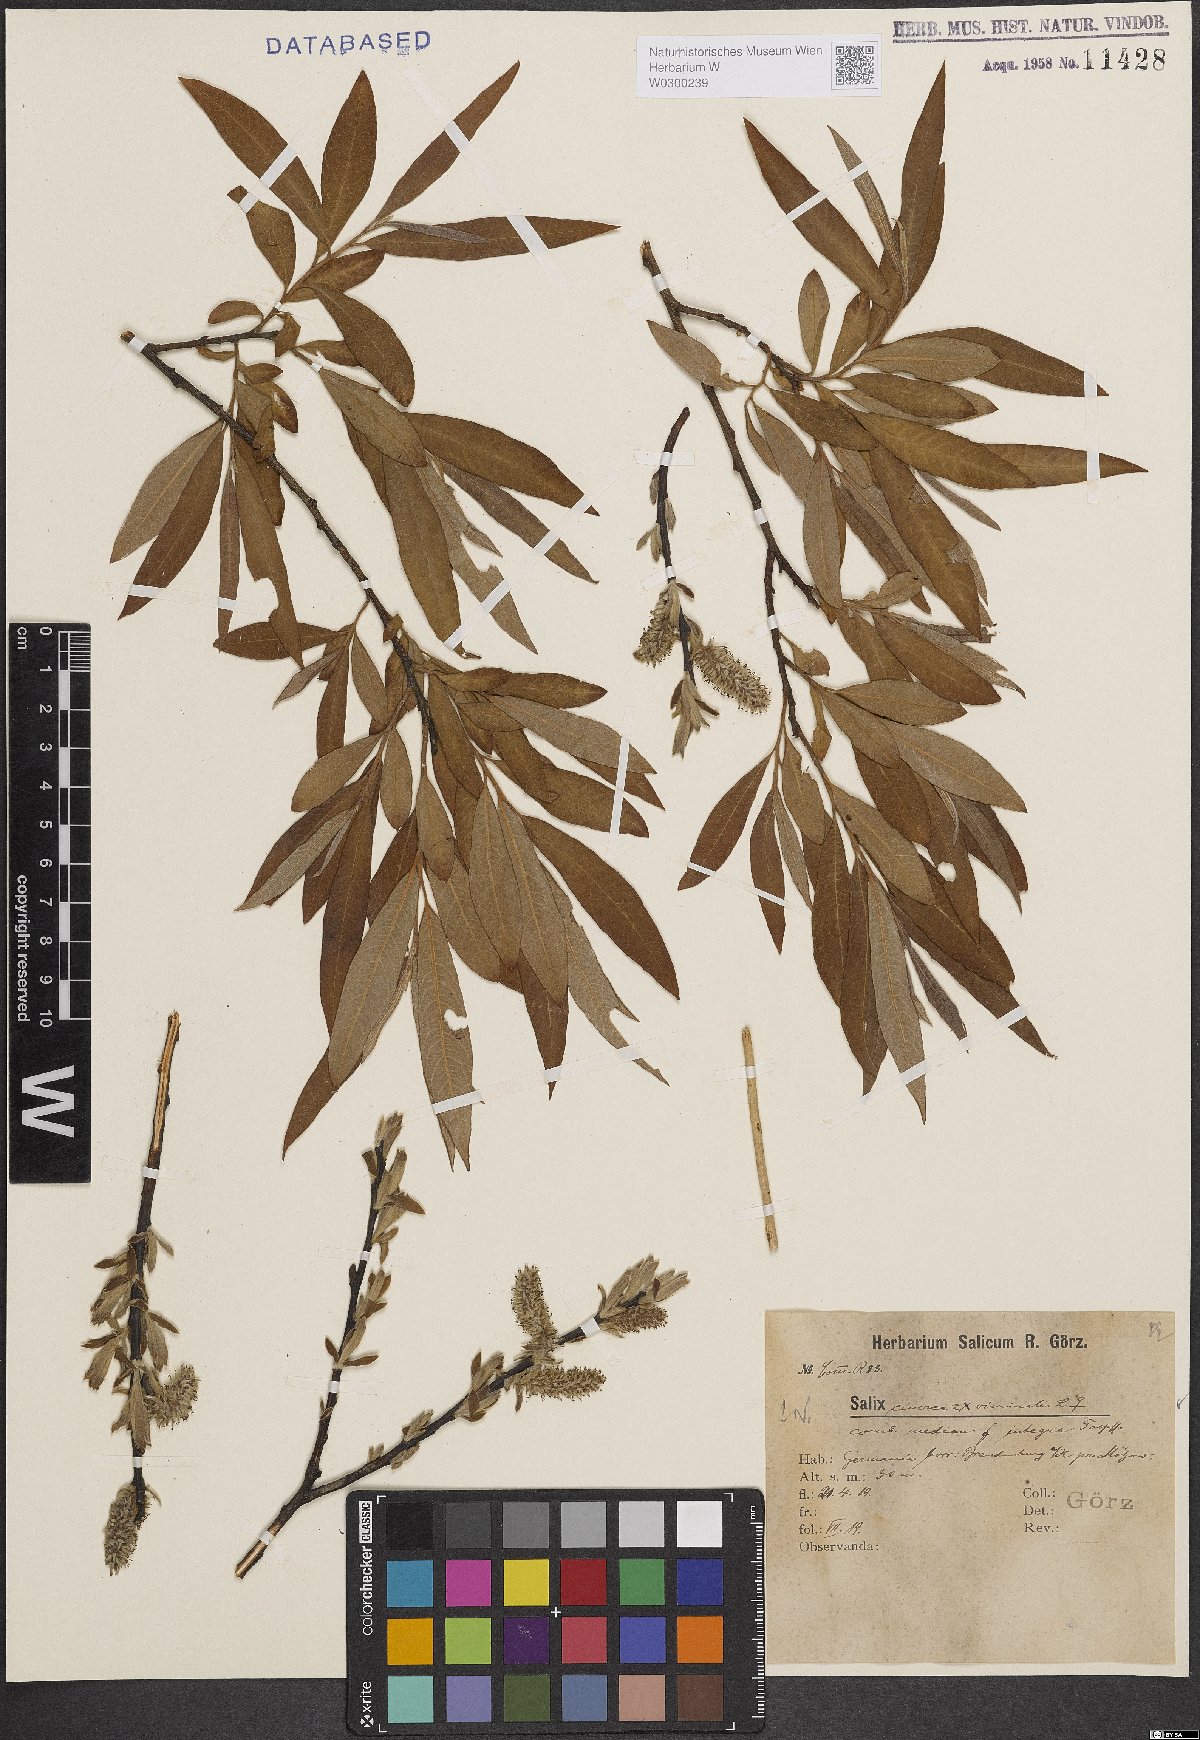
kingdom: Plantae
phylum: Tracheophyta
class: Magnoliopsida
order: Malpighiales
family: Salicaceae
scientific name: Salicaceae
